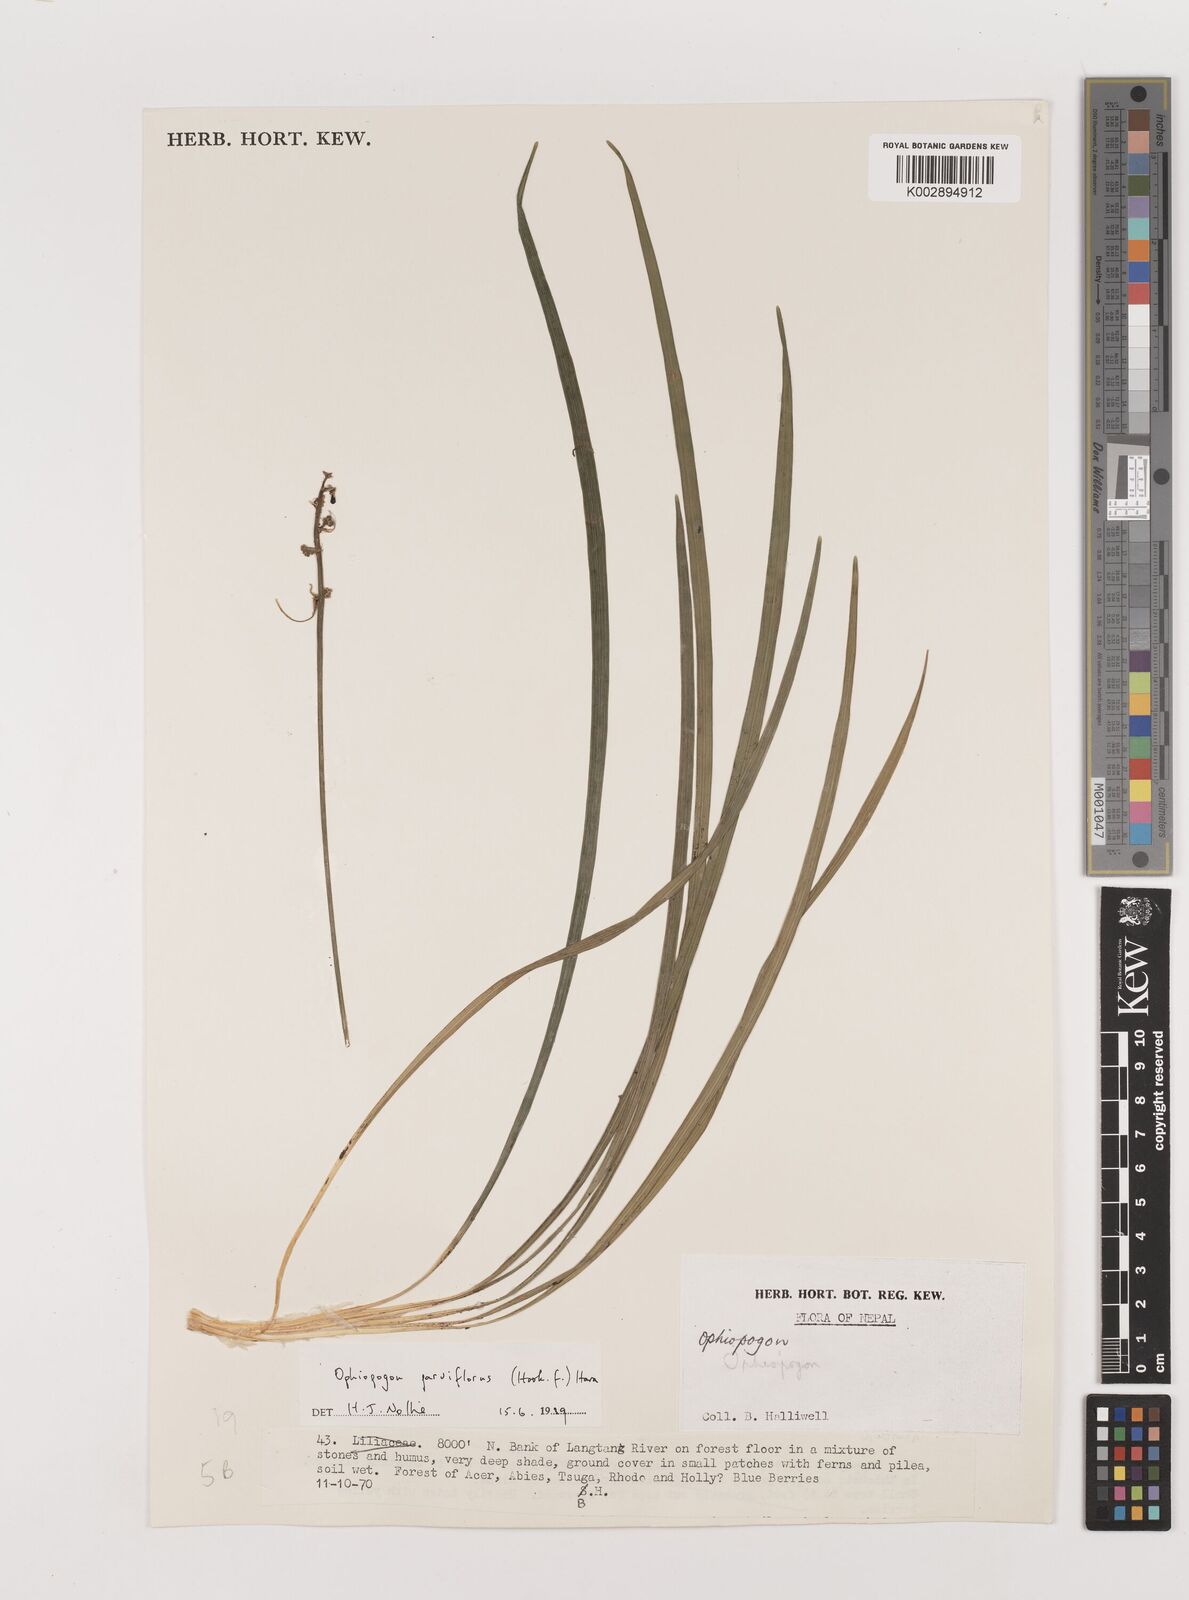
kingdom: Plantae
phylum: Tracheophyta
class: Liliopsida
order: Asparagales
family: Asparagaceae
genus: Ophiopogon
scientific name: Ophiopogon intermedius
